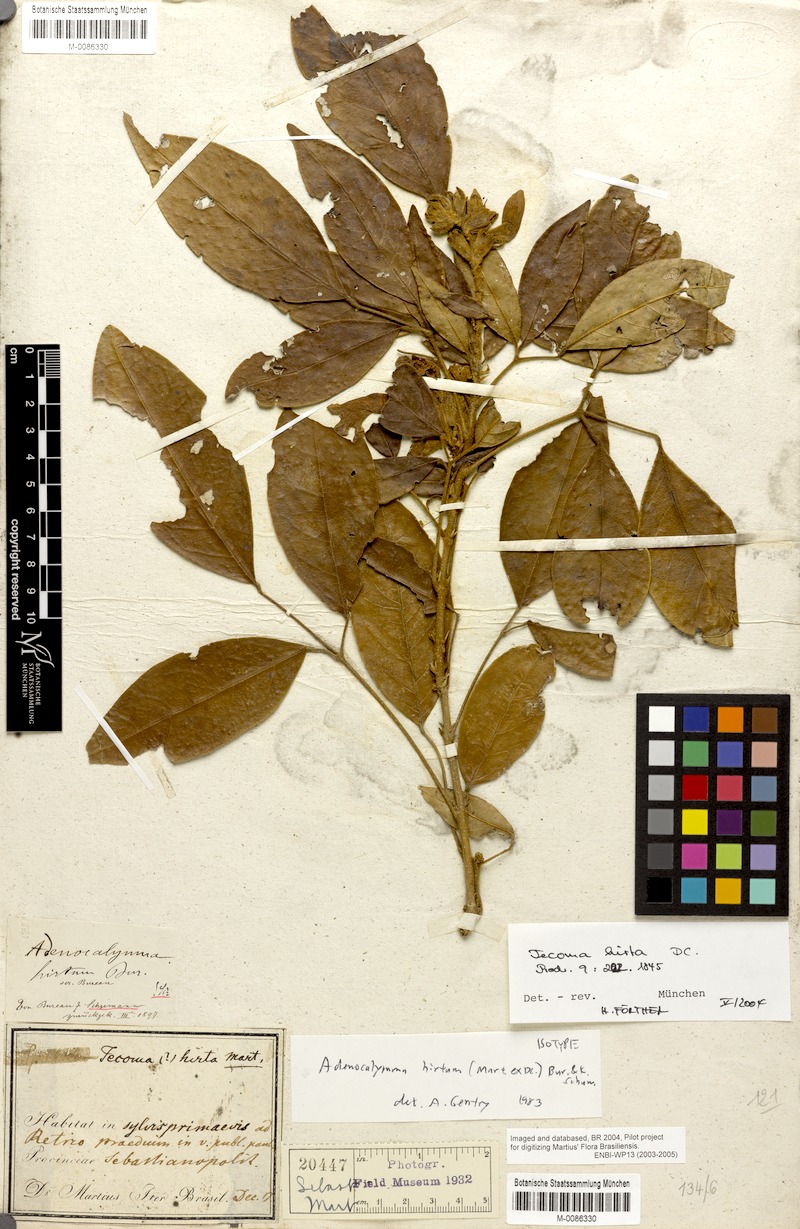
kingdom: Plantae
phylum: Tracheophyta
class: Magnoliopsida
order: Lamiales
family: Bignoniaceae
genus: Adenocalymma
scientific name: Adenocalymma hirtum
